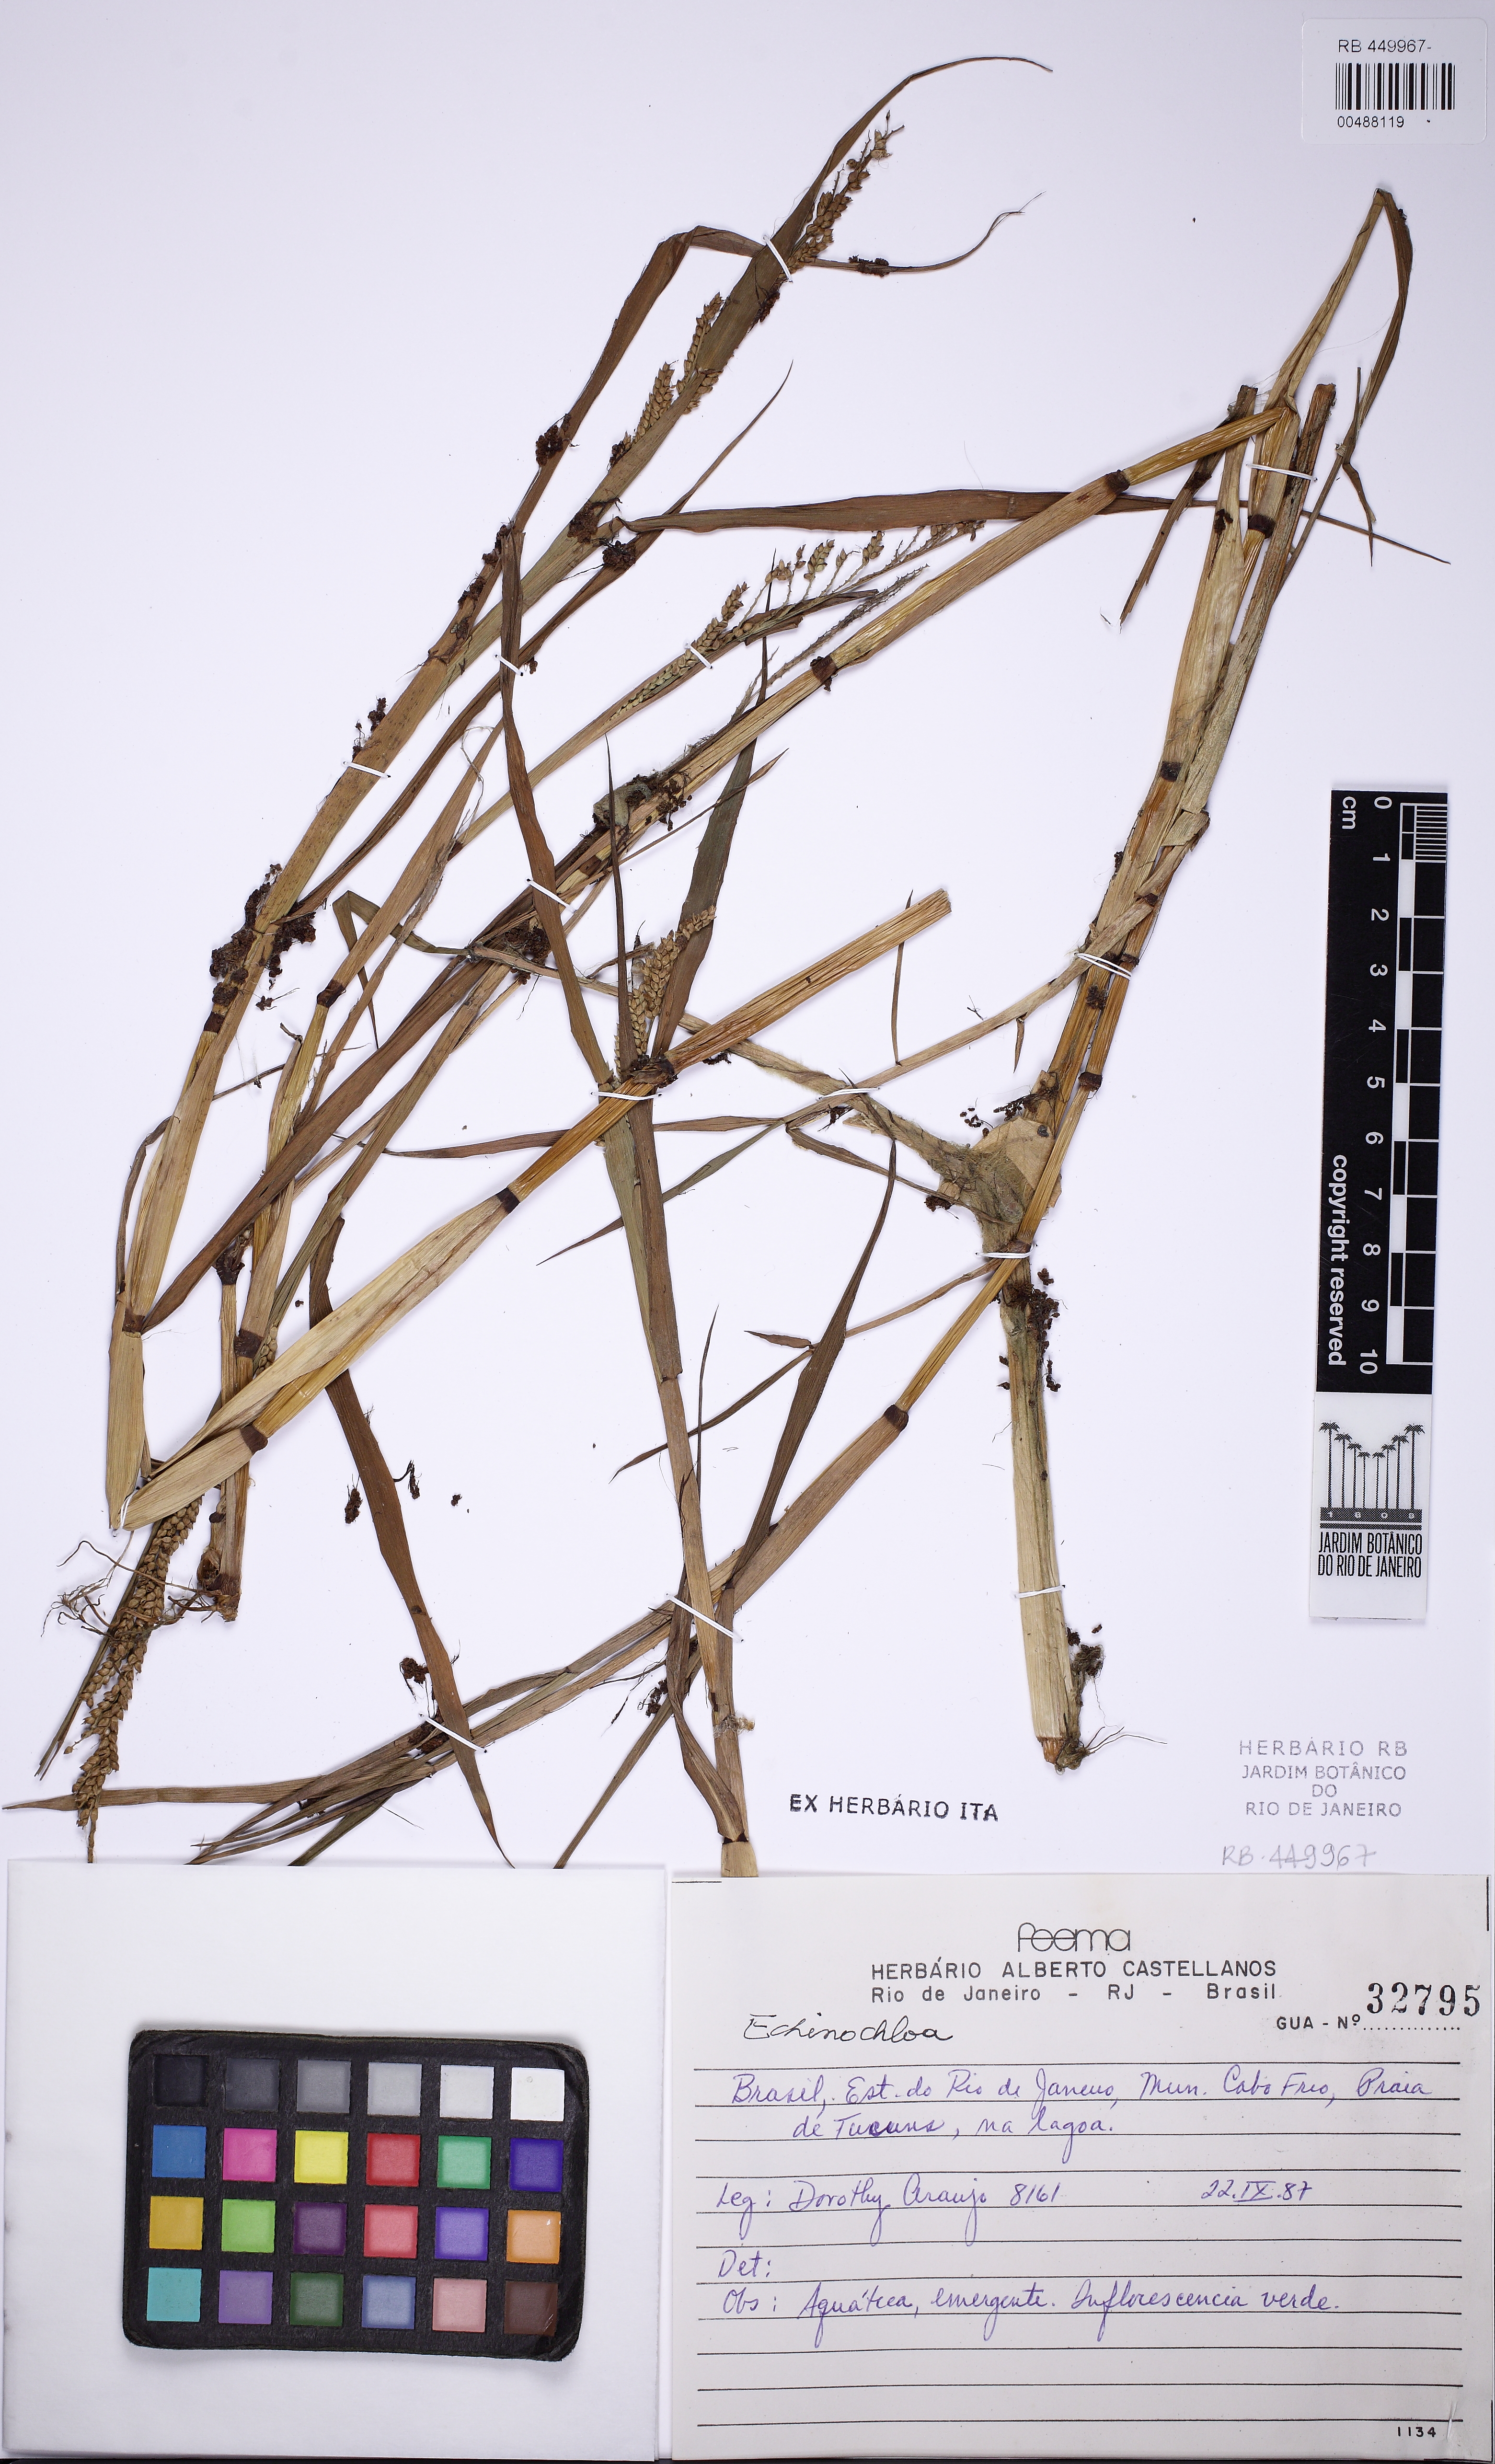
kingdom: Plantae
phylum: Tracheophyta
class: Liliopsida
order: Poales
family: Poaceae
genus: Echinochloa
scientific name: Echinochloa
